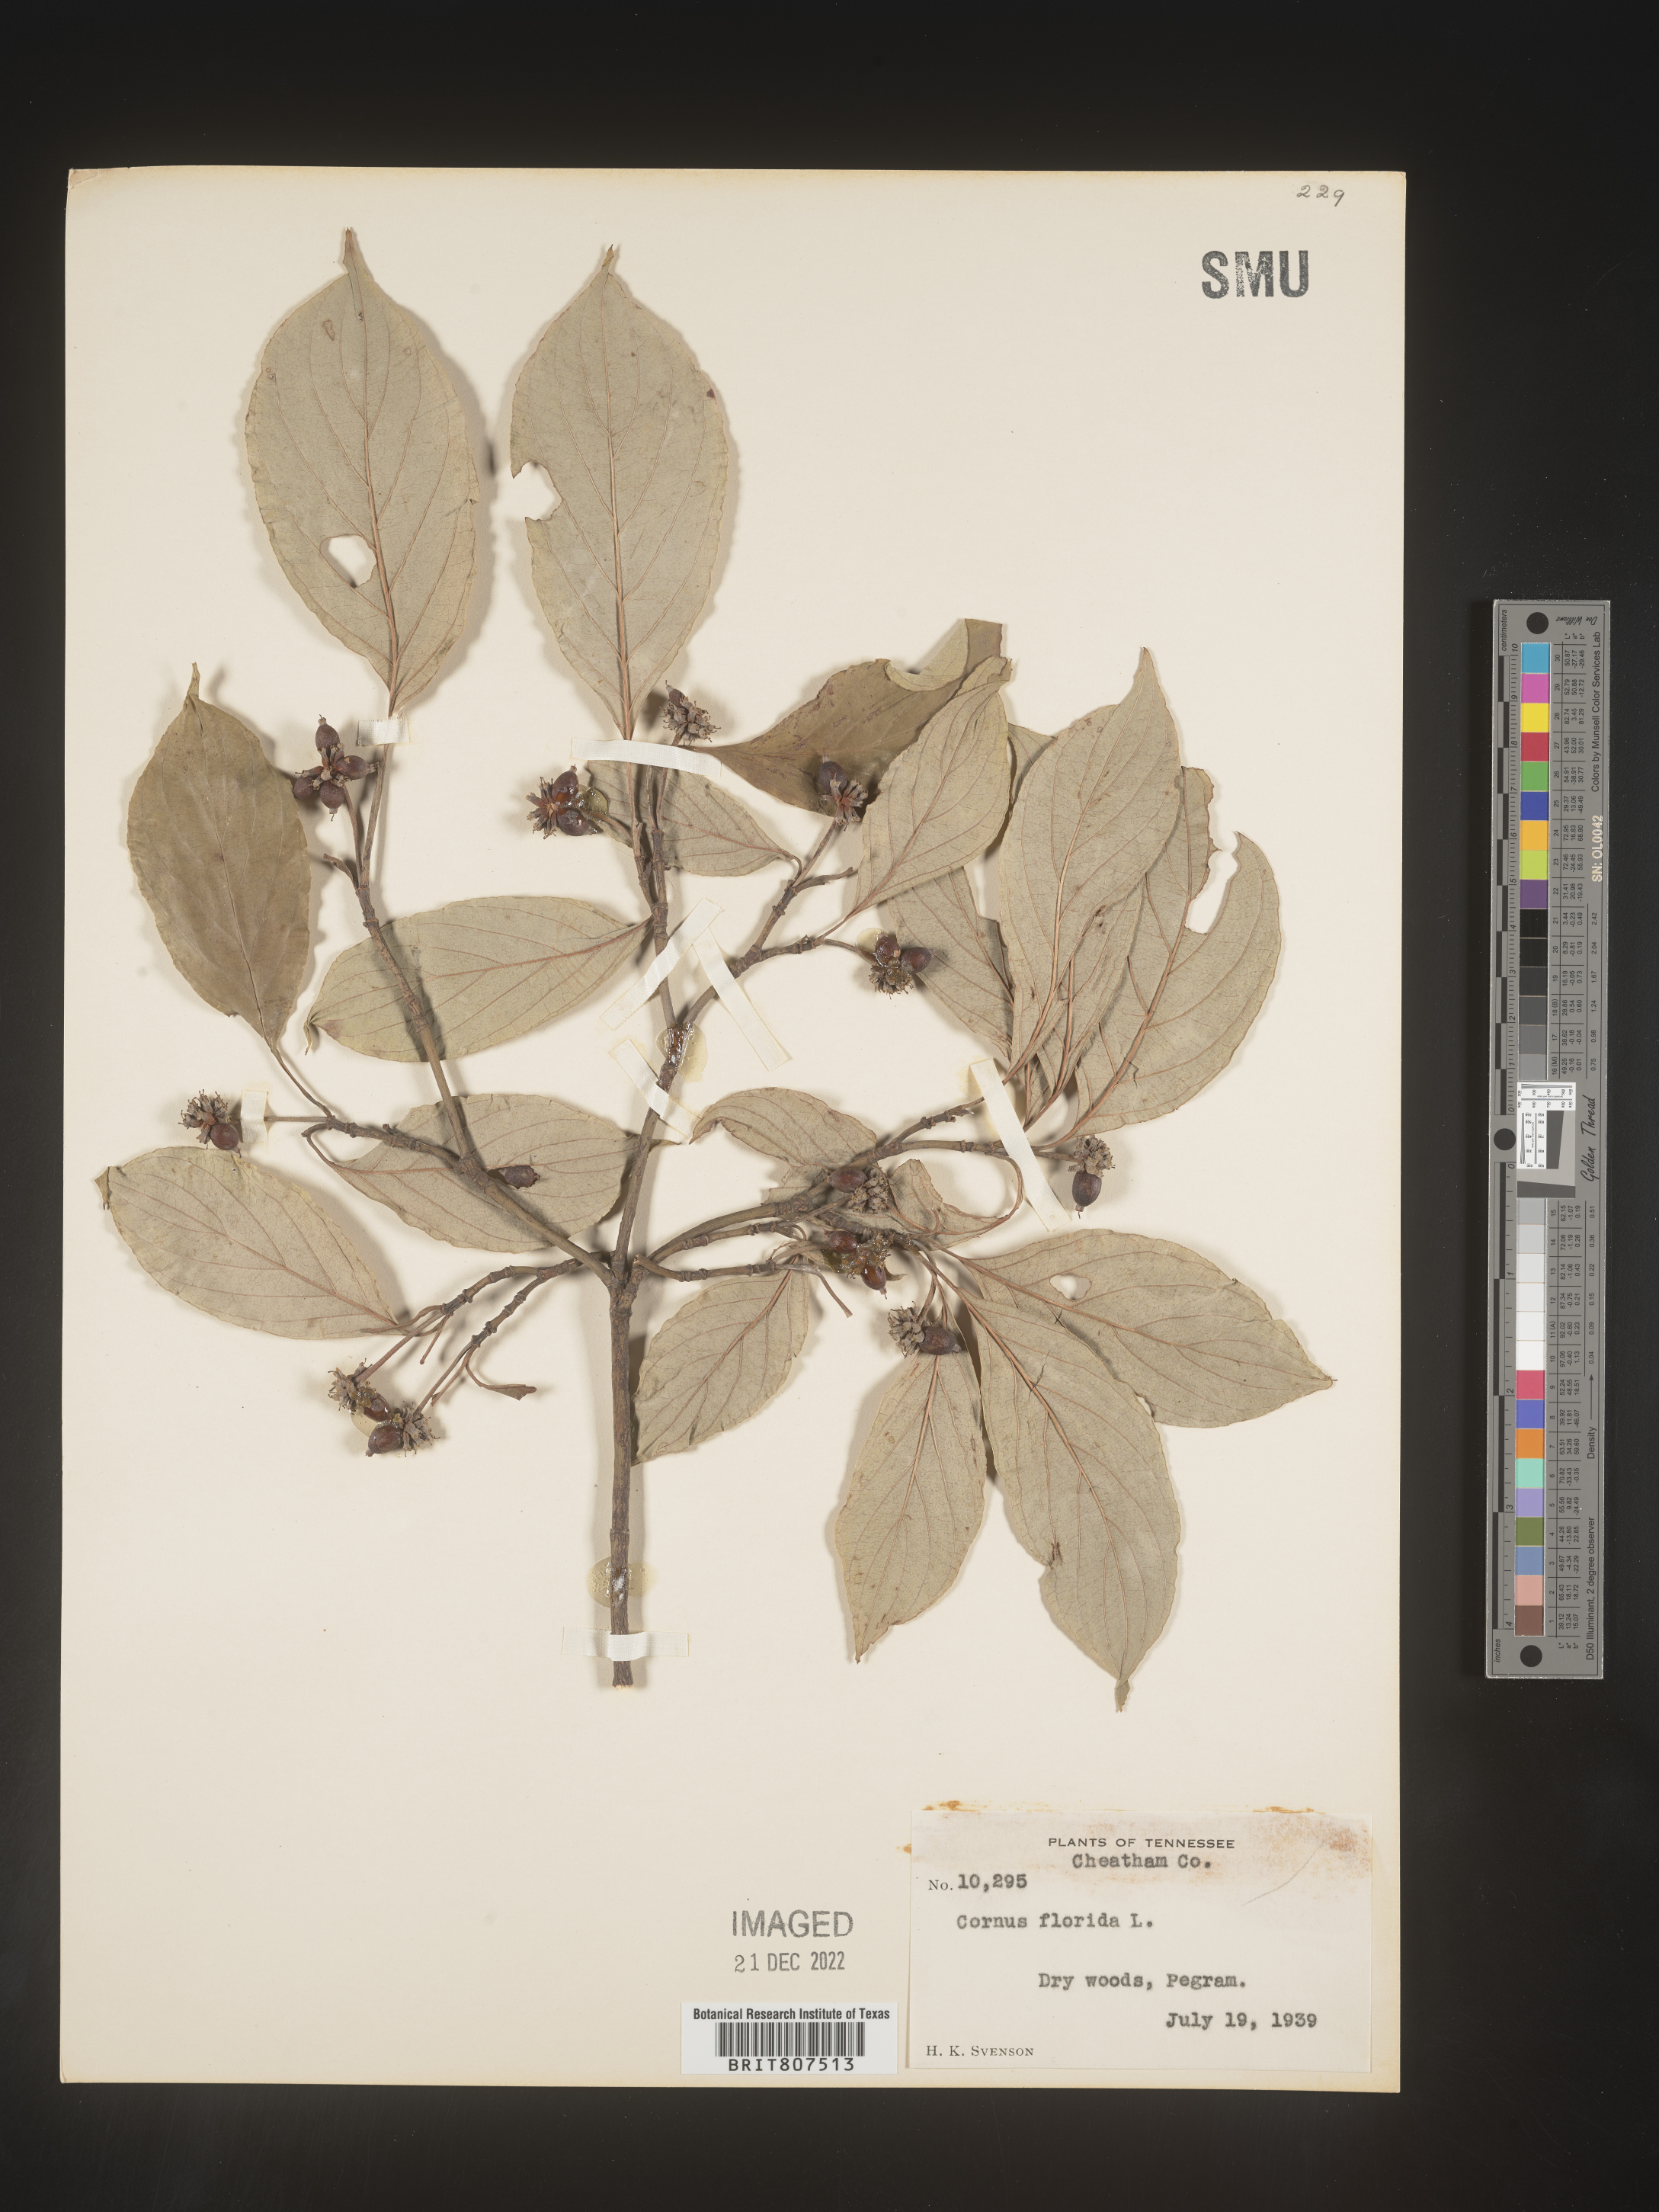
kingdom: Plantae
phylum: Tracheophyta
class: Magnoliopsida
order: Cornales
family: Cornaceae
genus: Cornus
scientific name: Cornus florida
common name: Flowering dogwood
